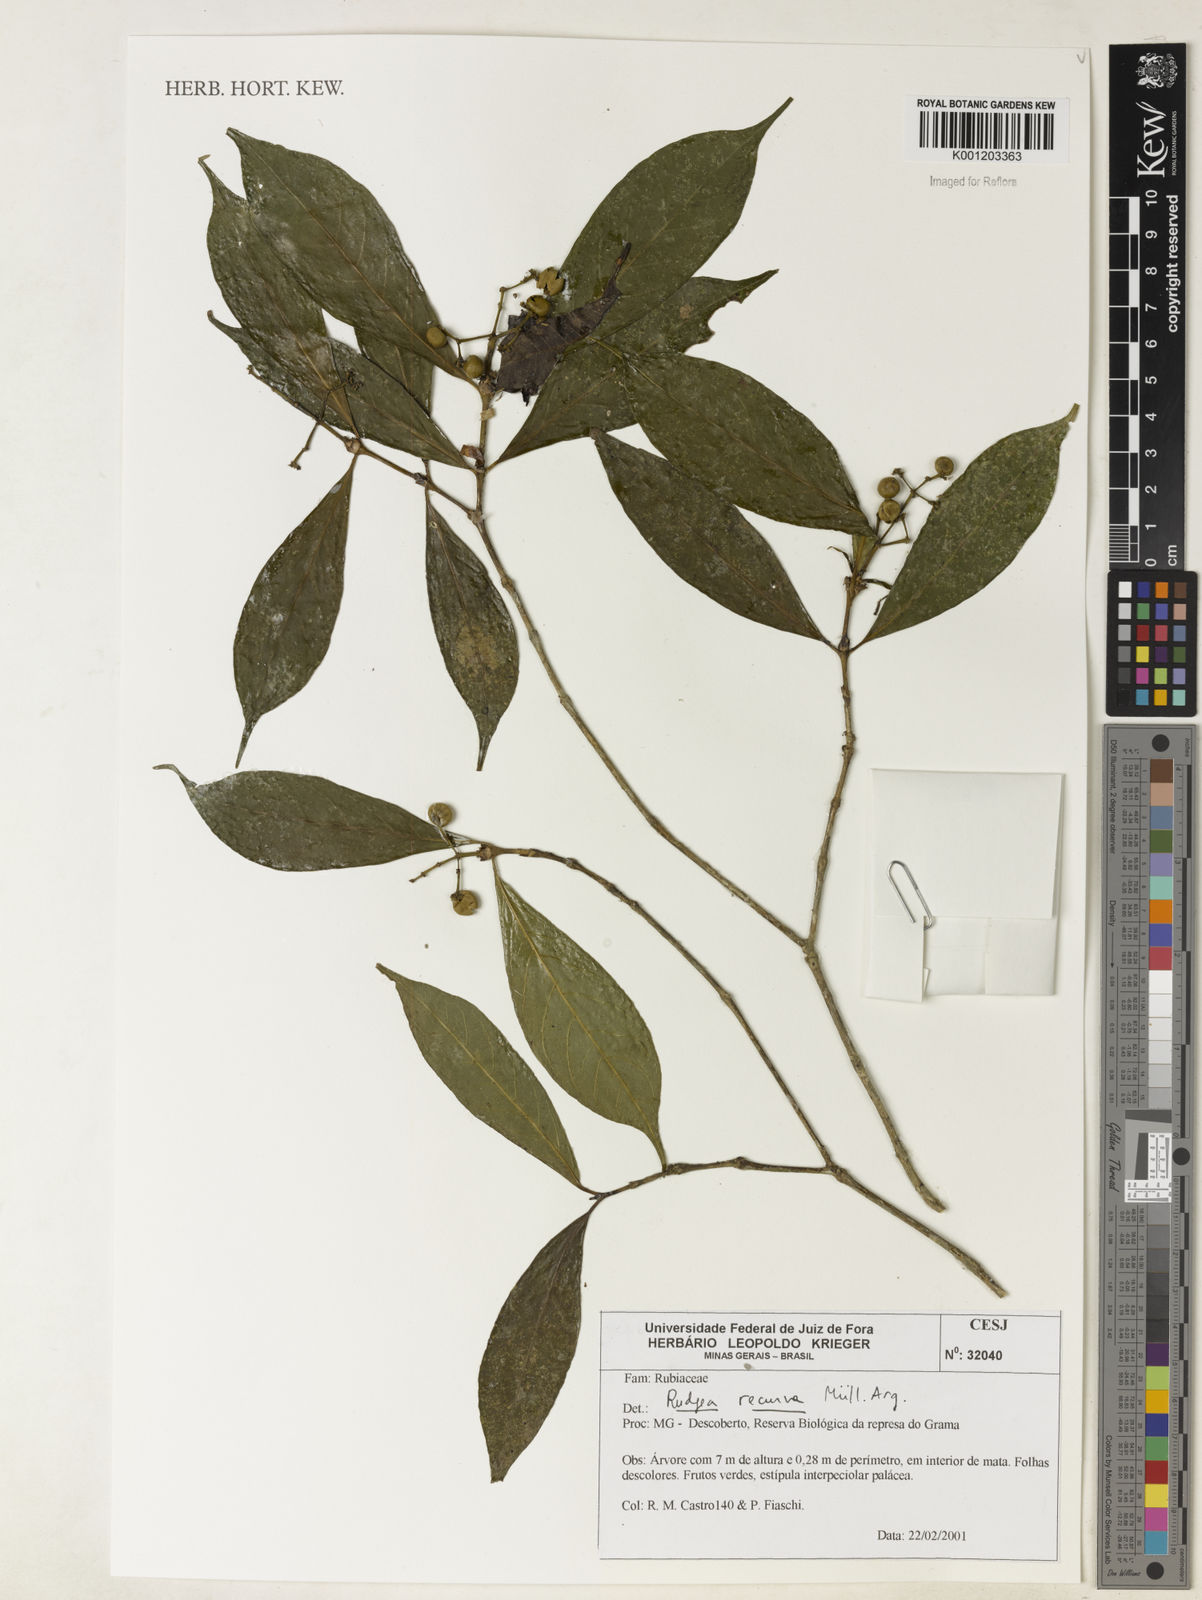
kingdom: Plantae
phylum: Tracheophyta
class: Magnoliopsida
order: Gentianales
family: Rubiaceae
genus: Rudgea
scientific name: Rudgea
